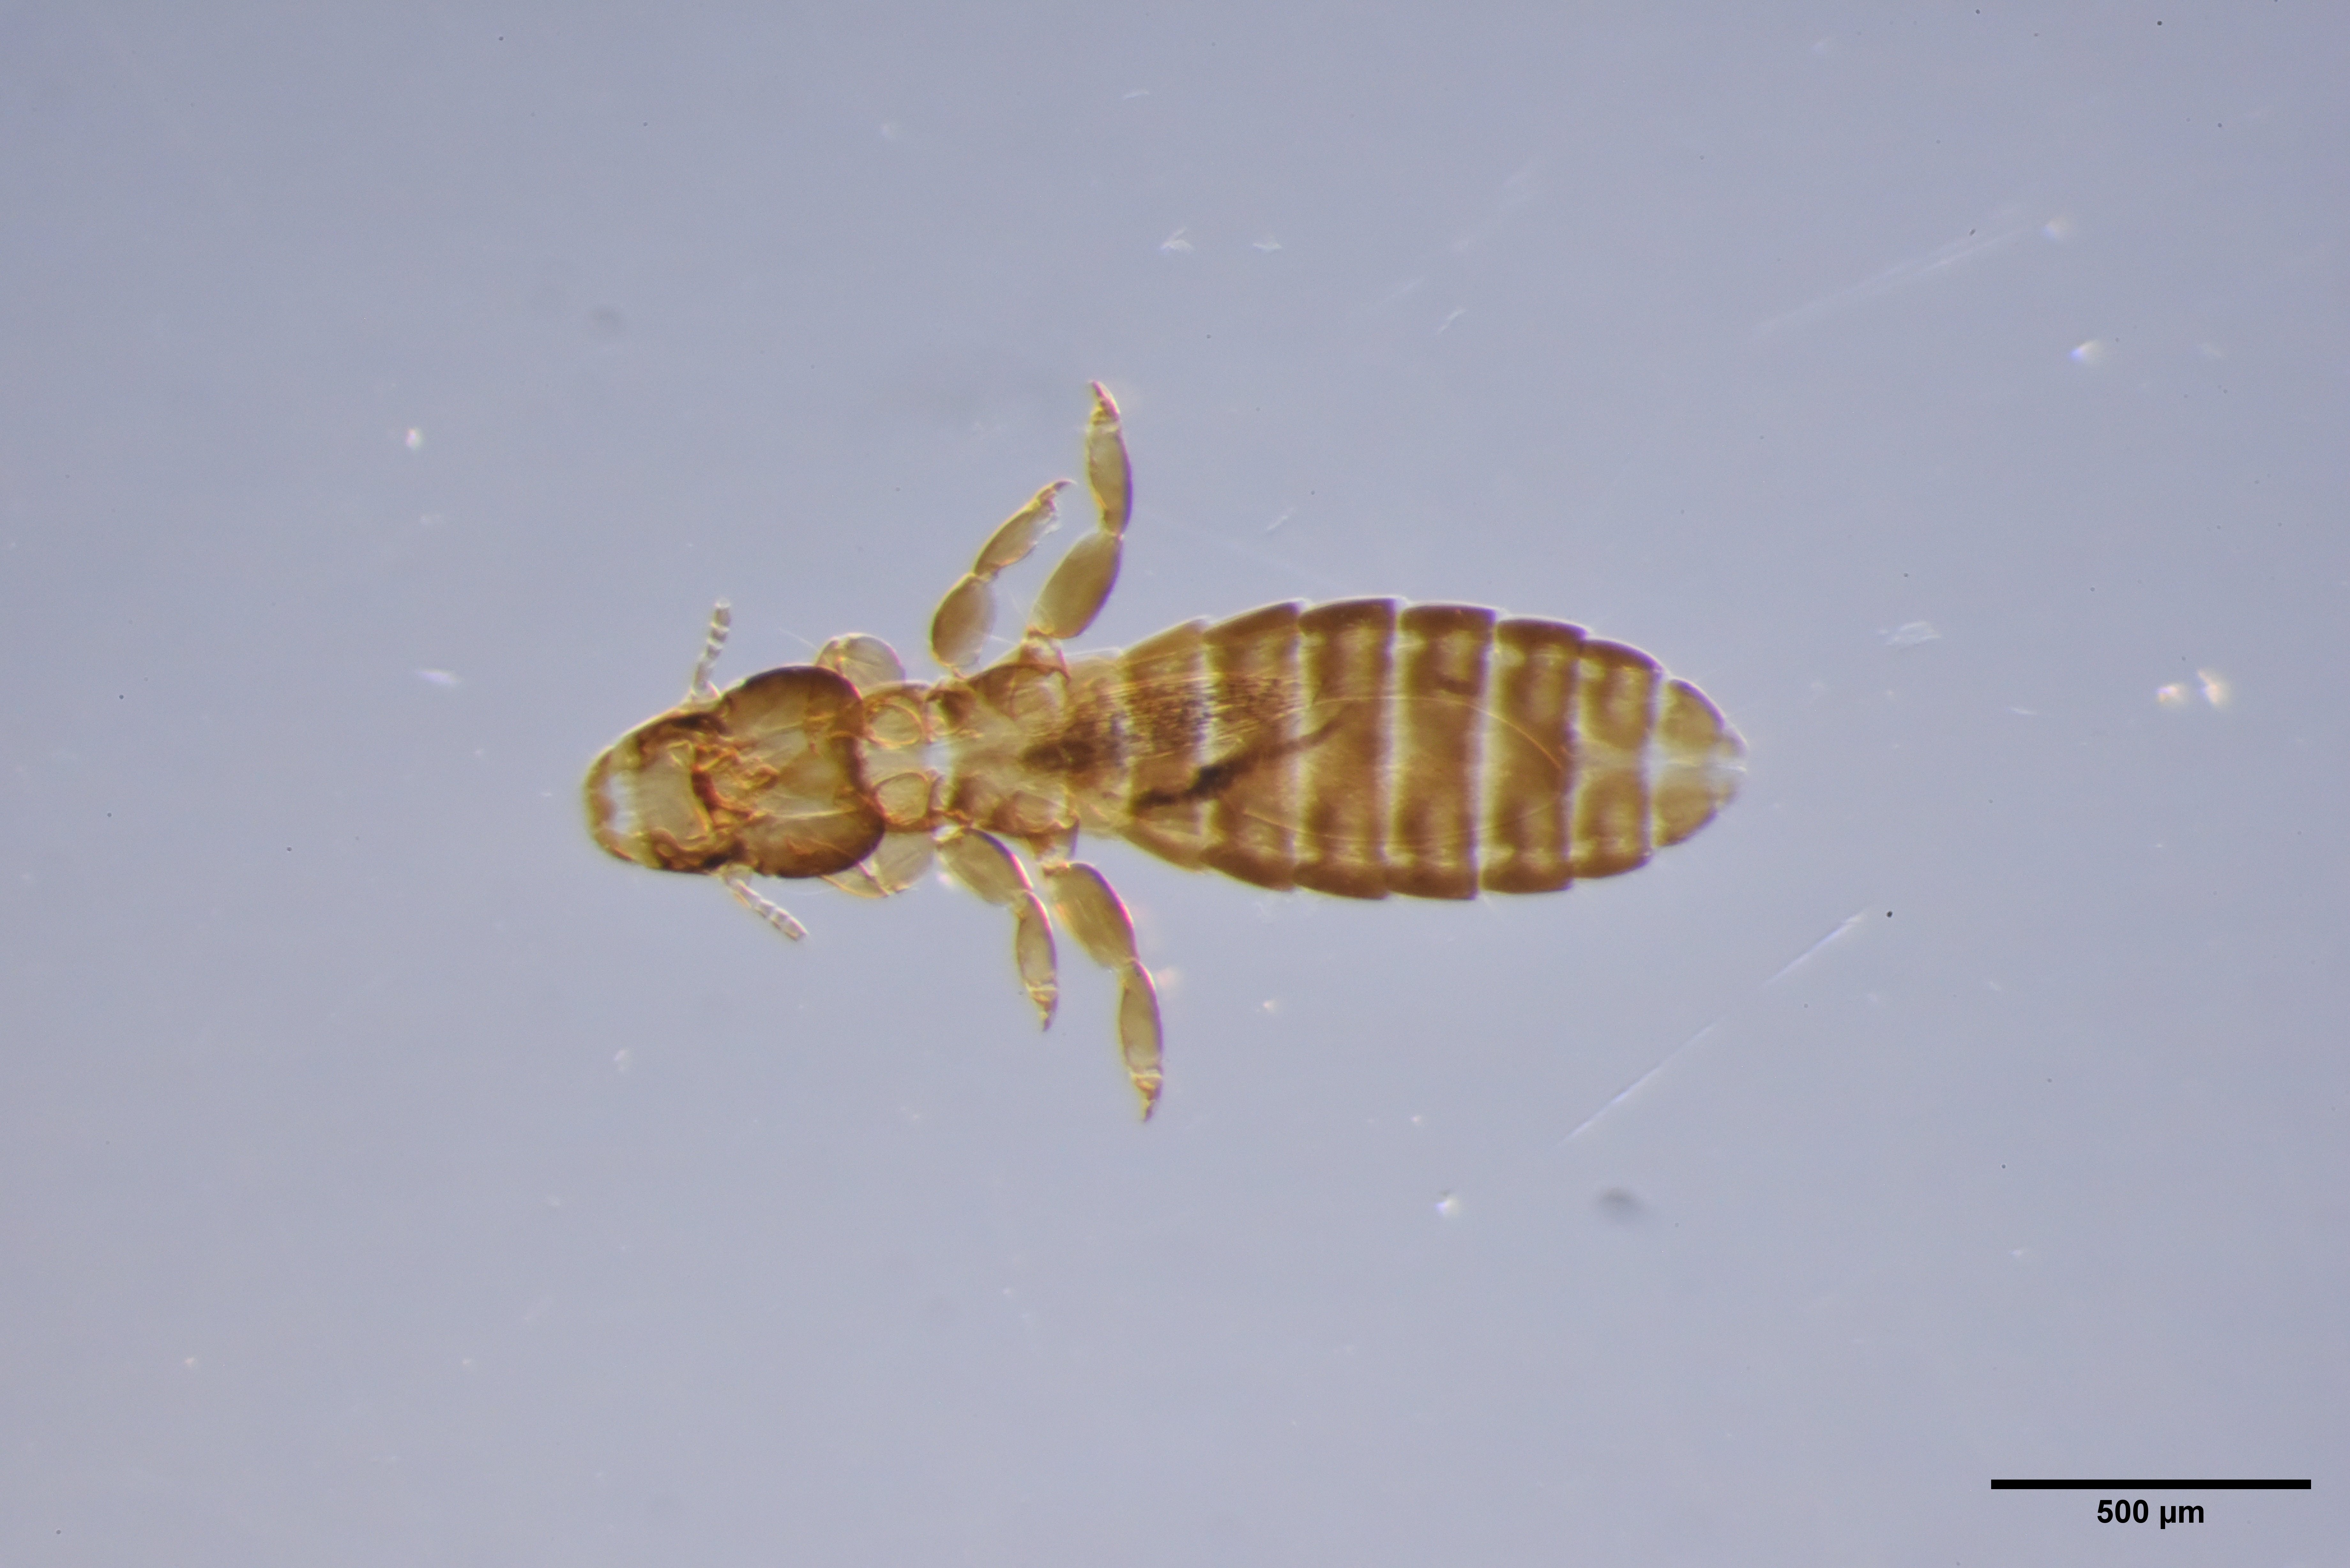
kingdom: Animalia
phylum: Arthropoda
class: Insecta
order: Psocodea
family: Philopteridae
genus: Lunaceps
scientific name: Lunaceps limosella
